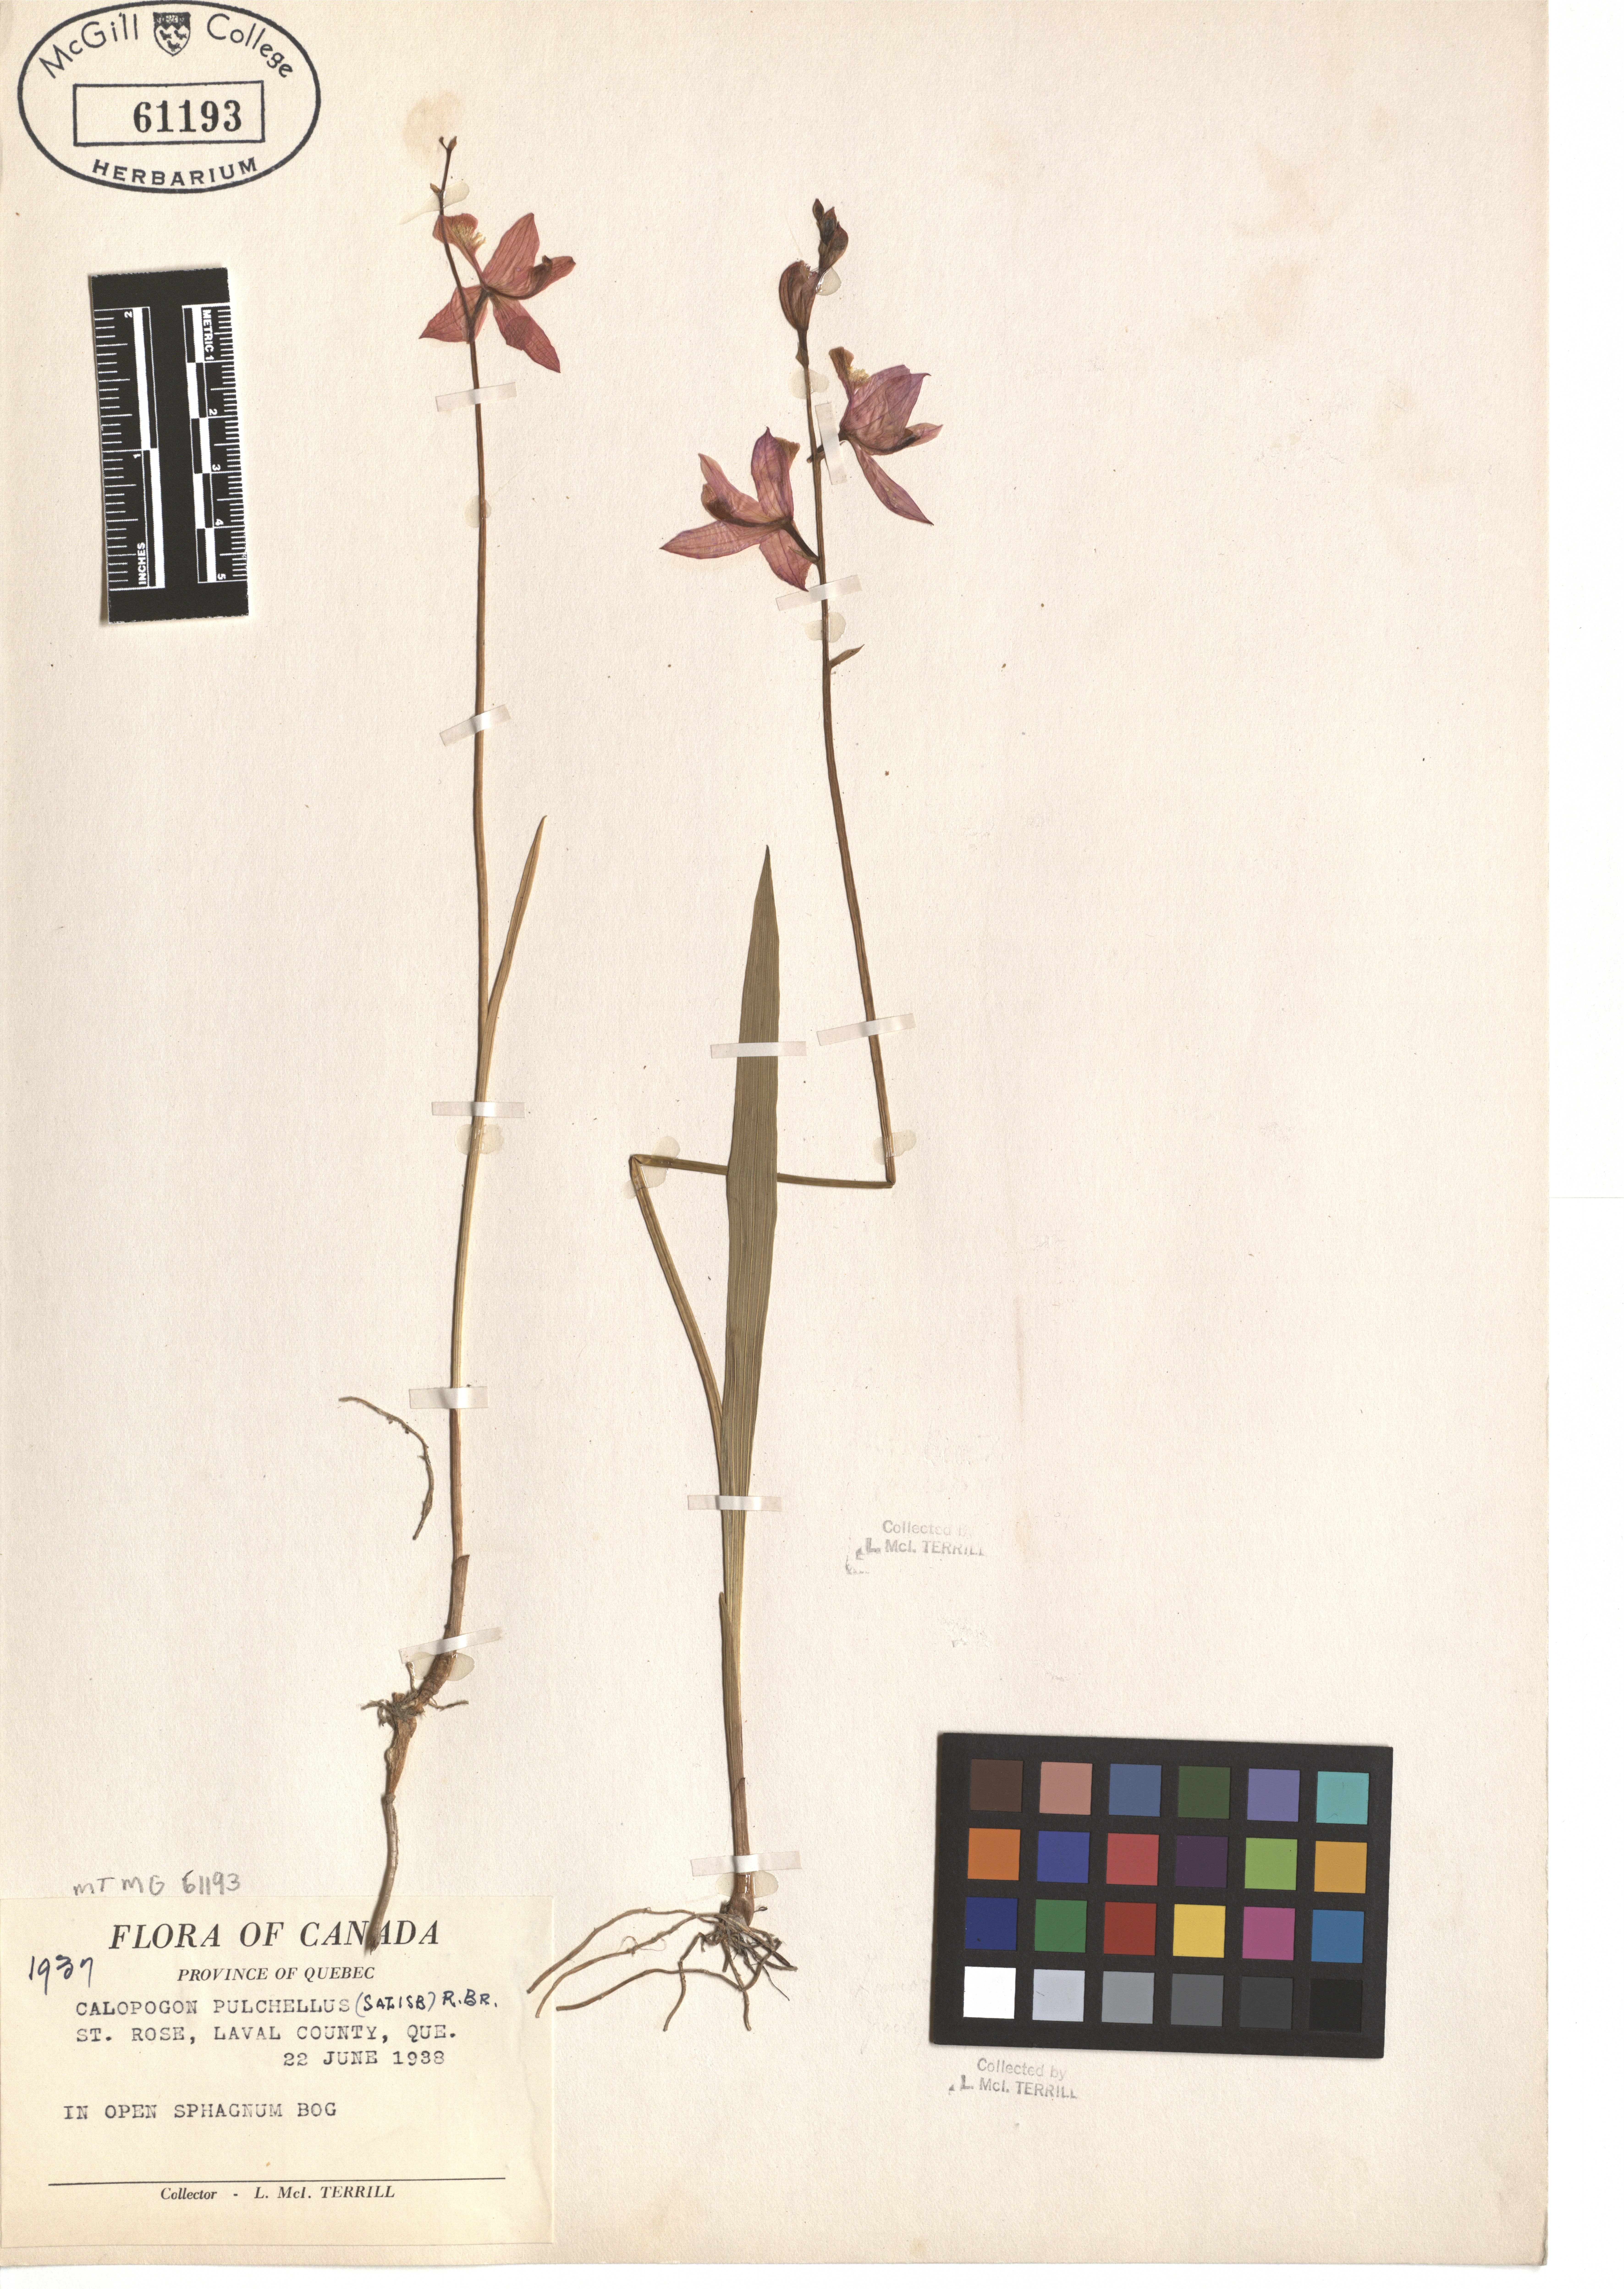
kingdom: Plantae
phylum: Tracheophyta
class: Liliopsida
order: Asparagales
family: Orchidaceae
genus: Calopogon
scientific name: Calopogon tuberosus
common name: Grass-pink
